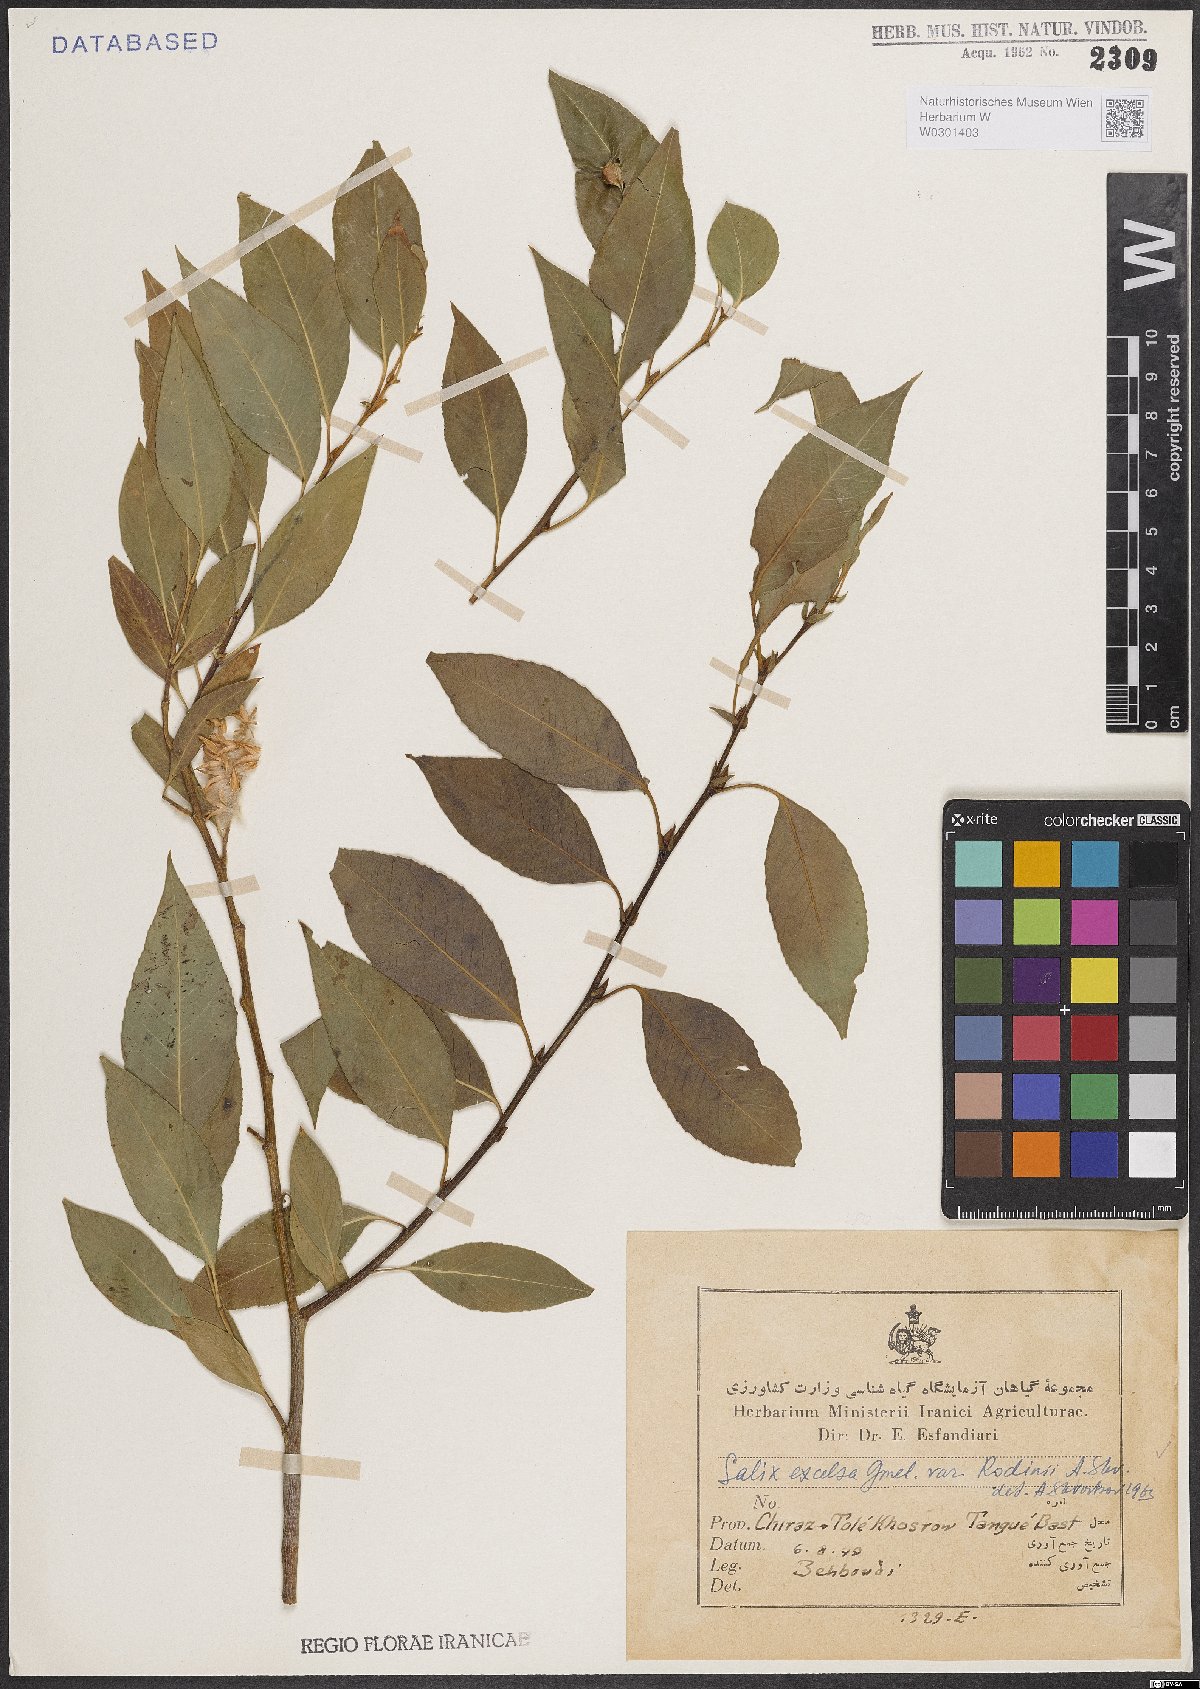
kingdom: Plantae
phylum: Tracheophyta
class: Magnoliopsida
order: Malpighiales
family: Salicaceae
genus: Salix
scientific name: Salix excelsa
